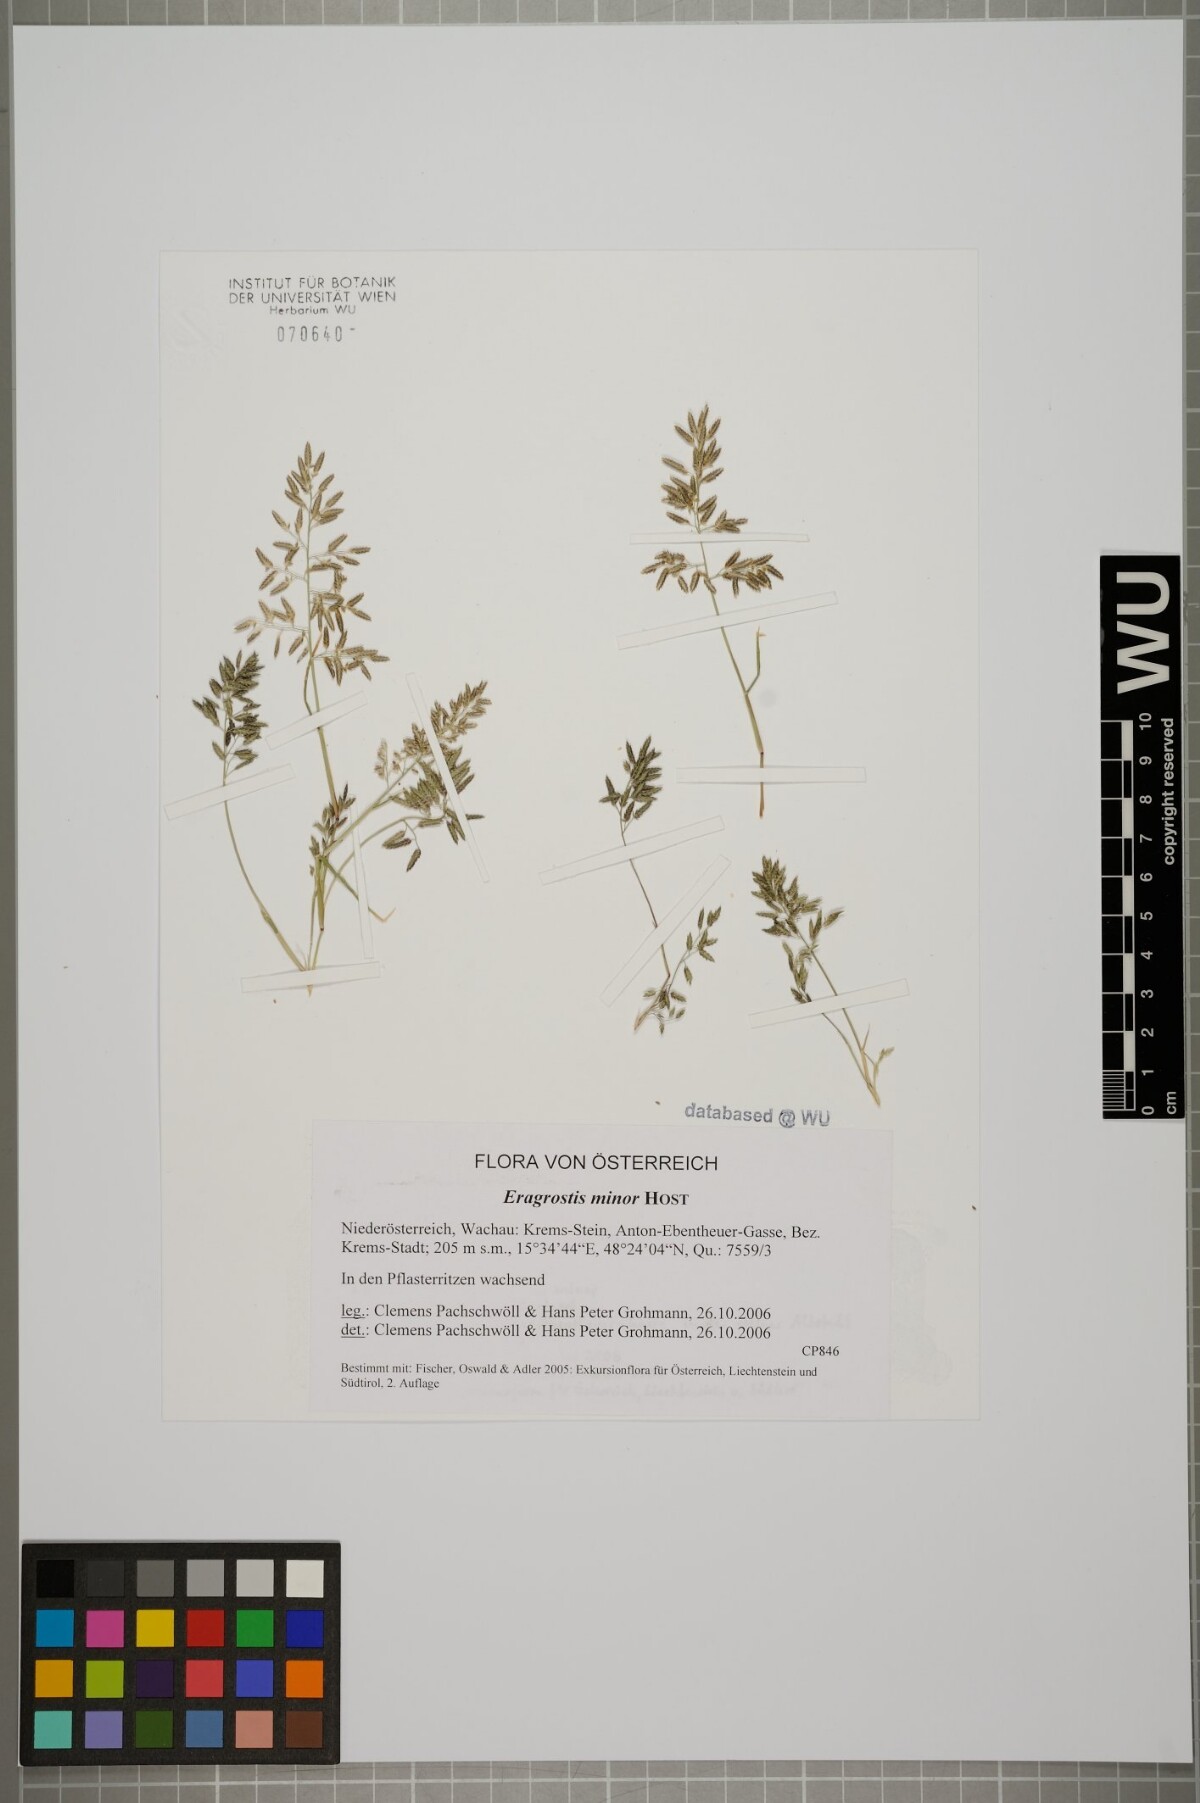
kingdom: Plantae
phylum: Tracheophyta
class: Liliopsida
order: Poales
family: Poaceae
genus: Eragrostis
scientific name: Eragrostis minor
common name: Small love-grass
